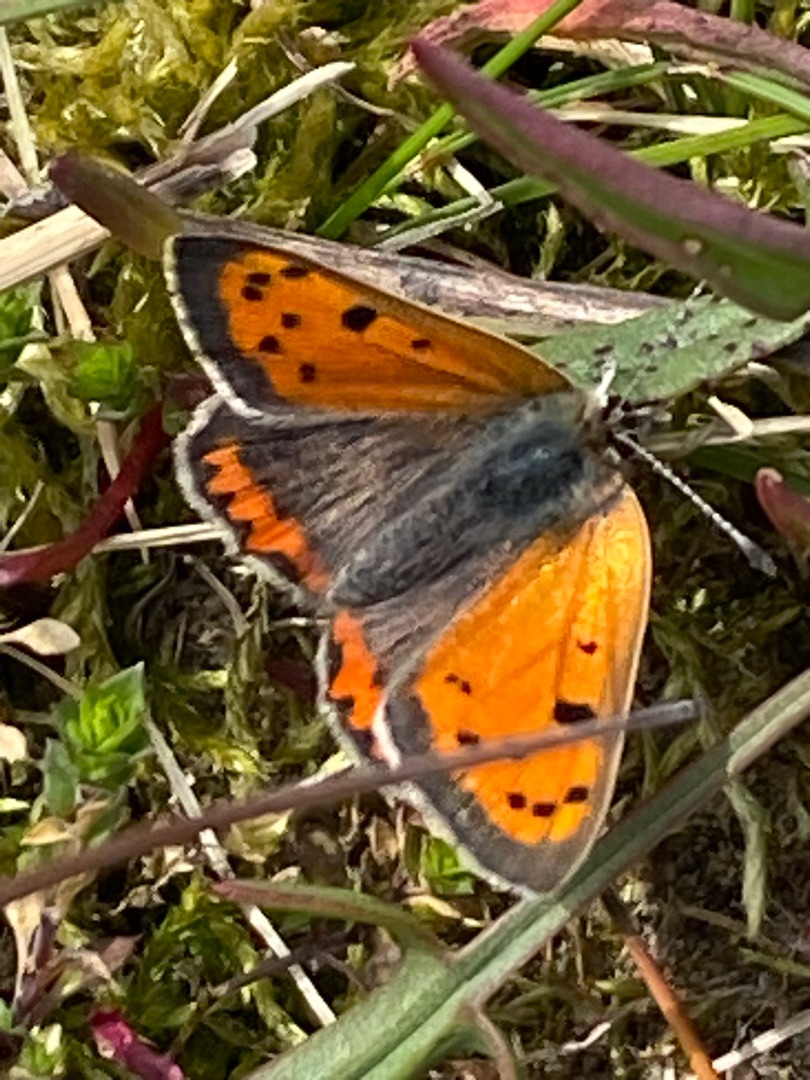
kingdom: Animalia
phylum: Arthropoda
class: Insecta
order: Lepidoptera
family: Lycaenidae
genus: Lycaena
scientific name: Lycaena phlaeas
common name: Lille ildfugl
